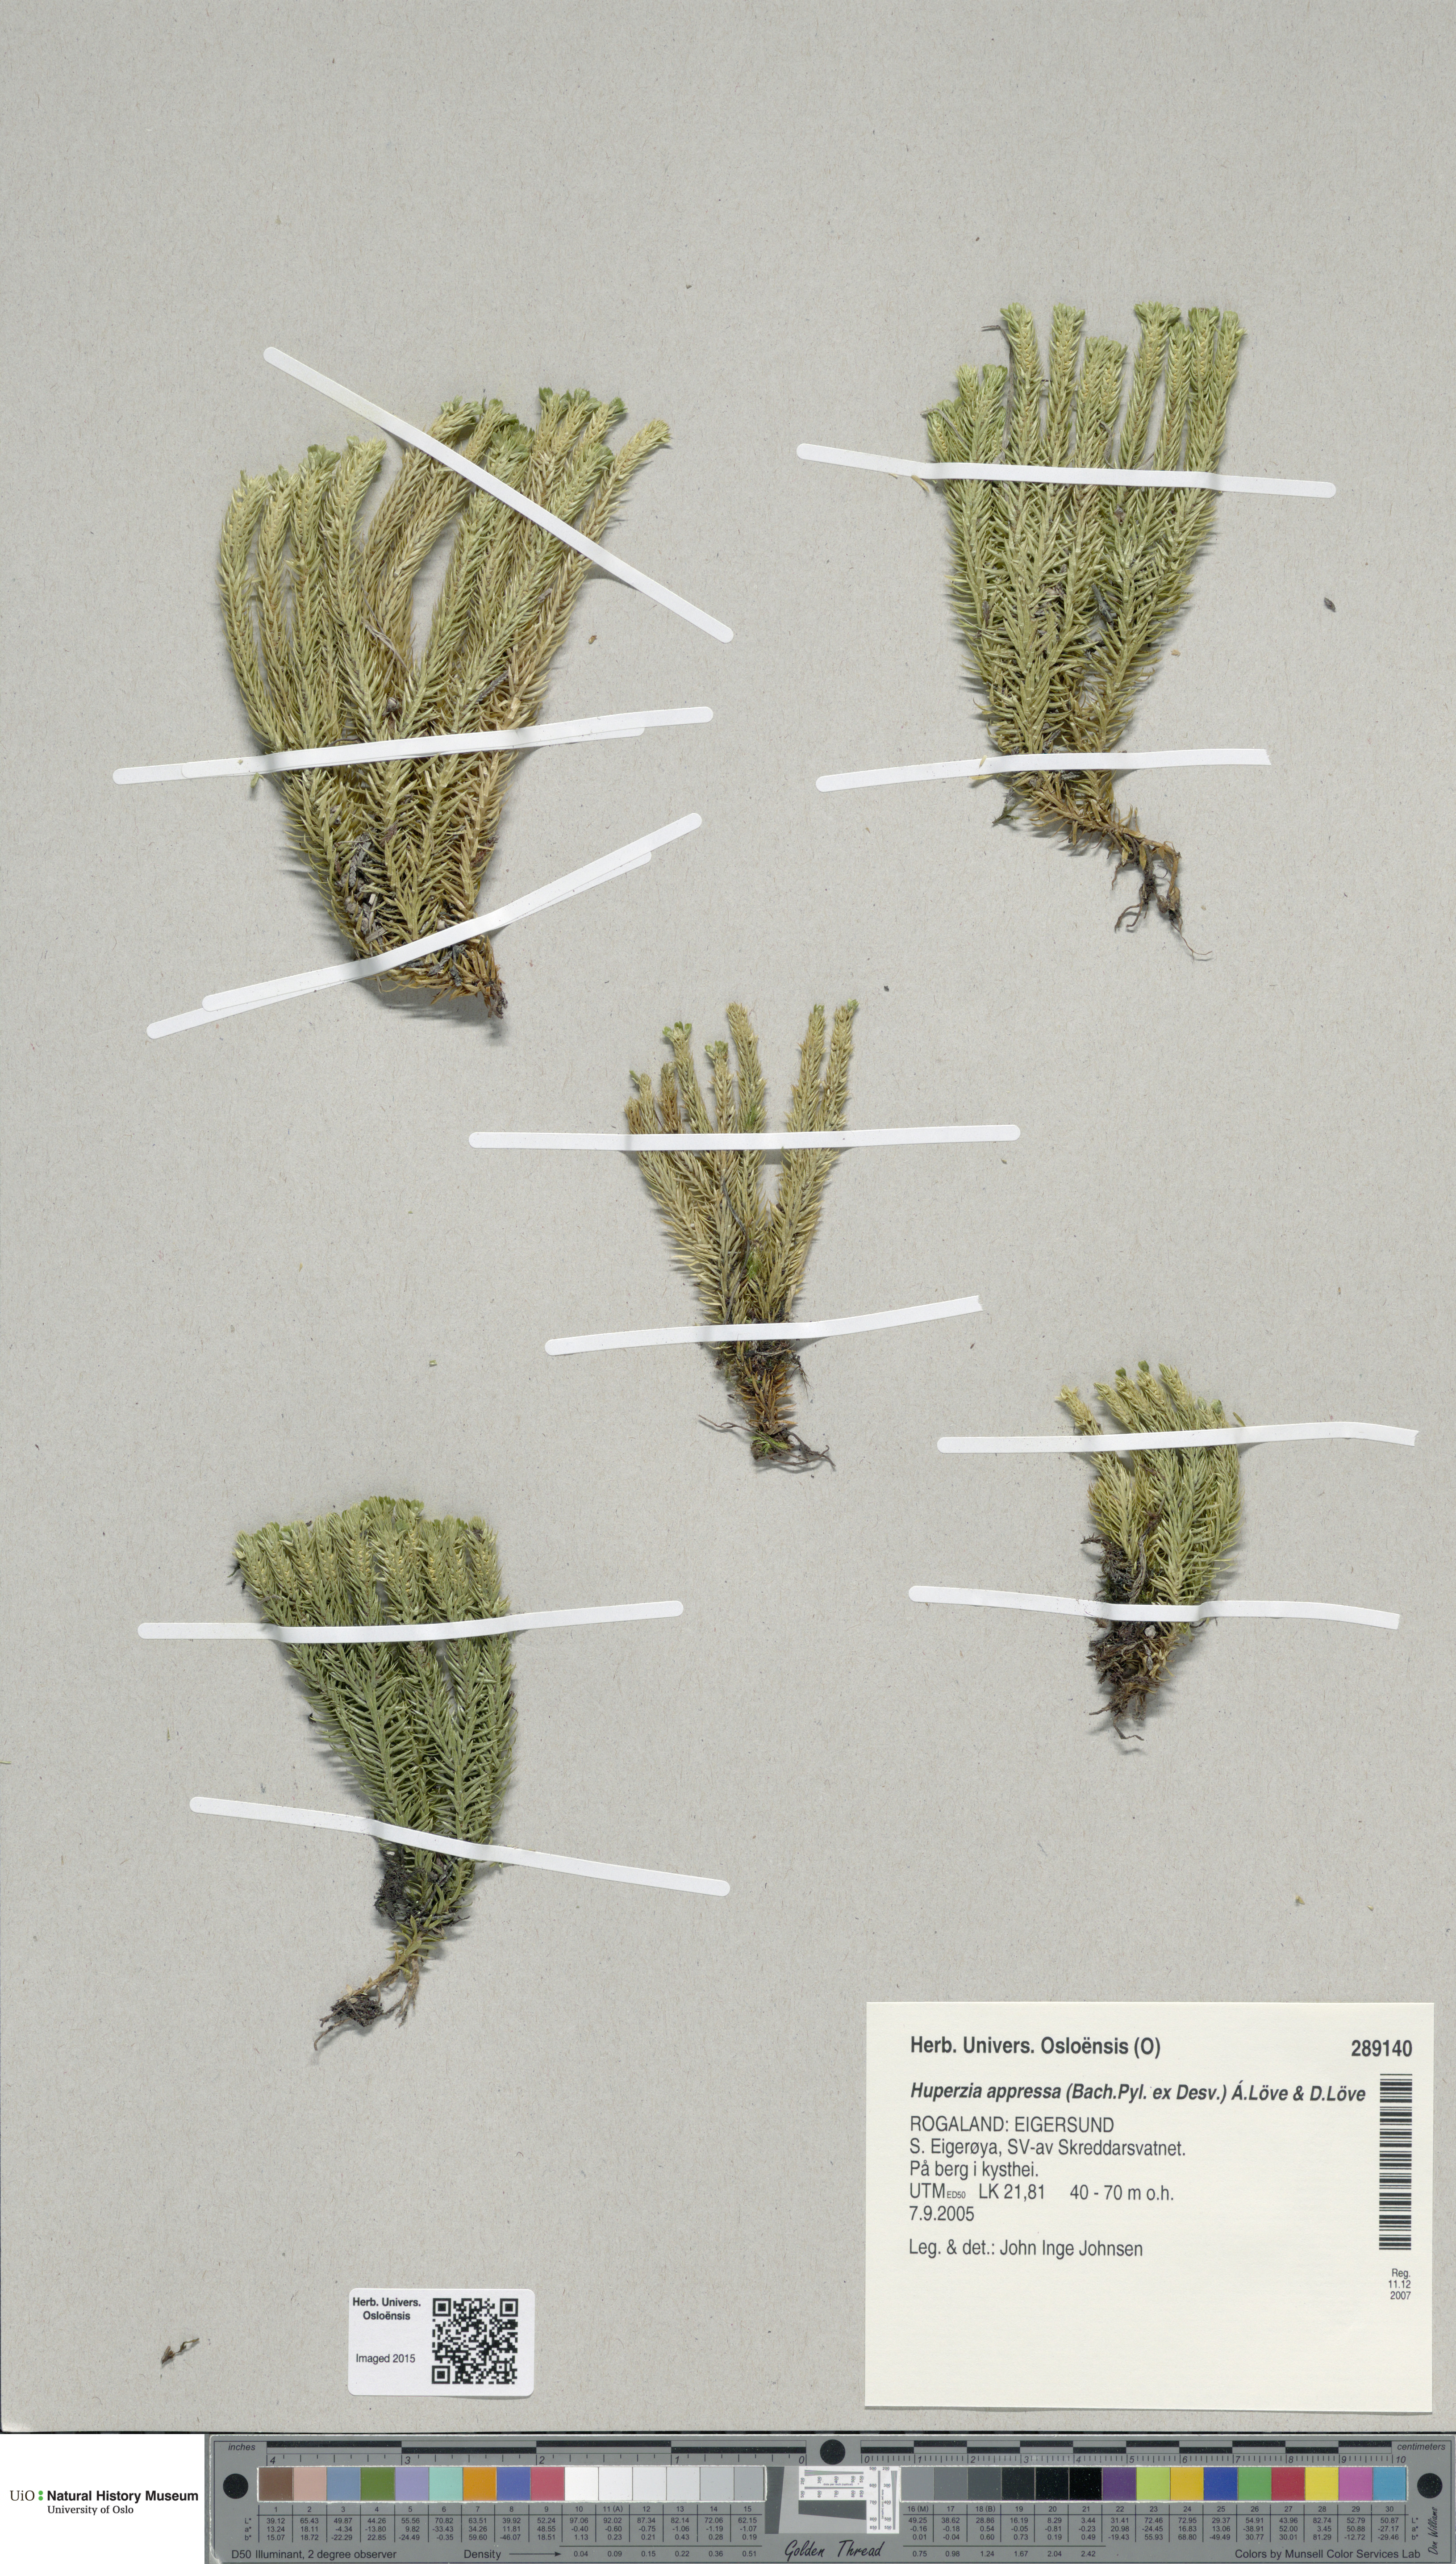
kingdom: Plantae
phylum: Tracheophyta
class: Lycopodiopsida
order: Lycopodiales
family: Lycopodiaceae
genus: Huperzia
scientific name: Huperzia selago
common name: Northern firmoss
